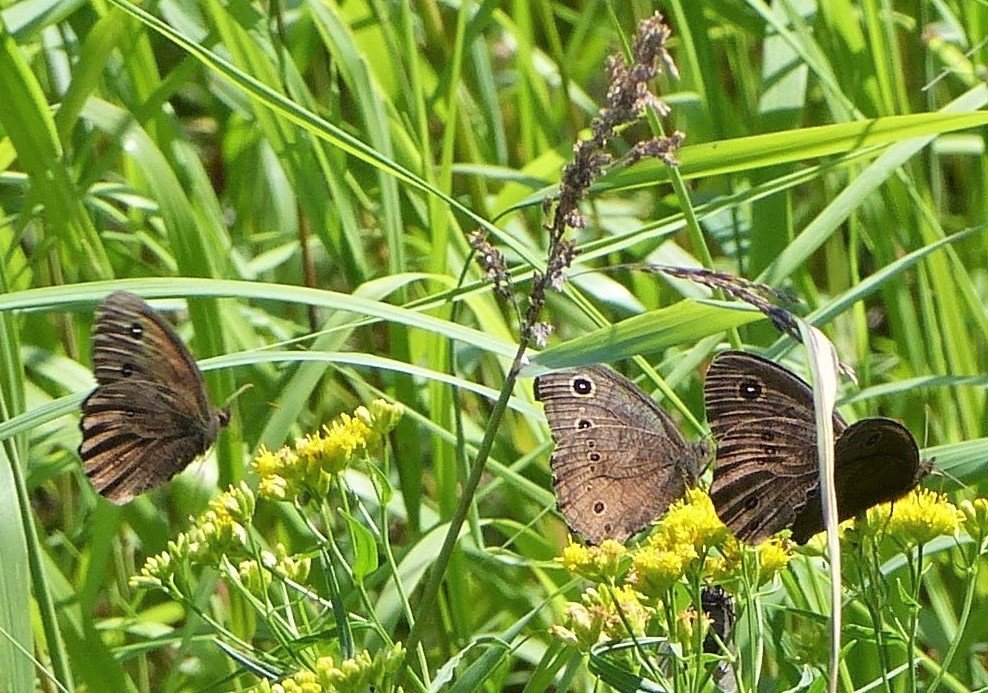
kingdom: Animalia
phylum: Arthropoda
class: Insecta
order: Lepidoptera
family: Nymphalidae
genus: Cercyonis
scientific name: Cercyonis pegala
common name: Common Wood-Nymph
